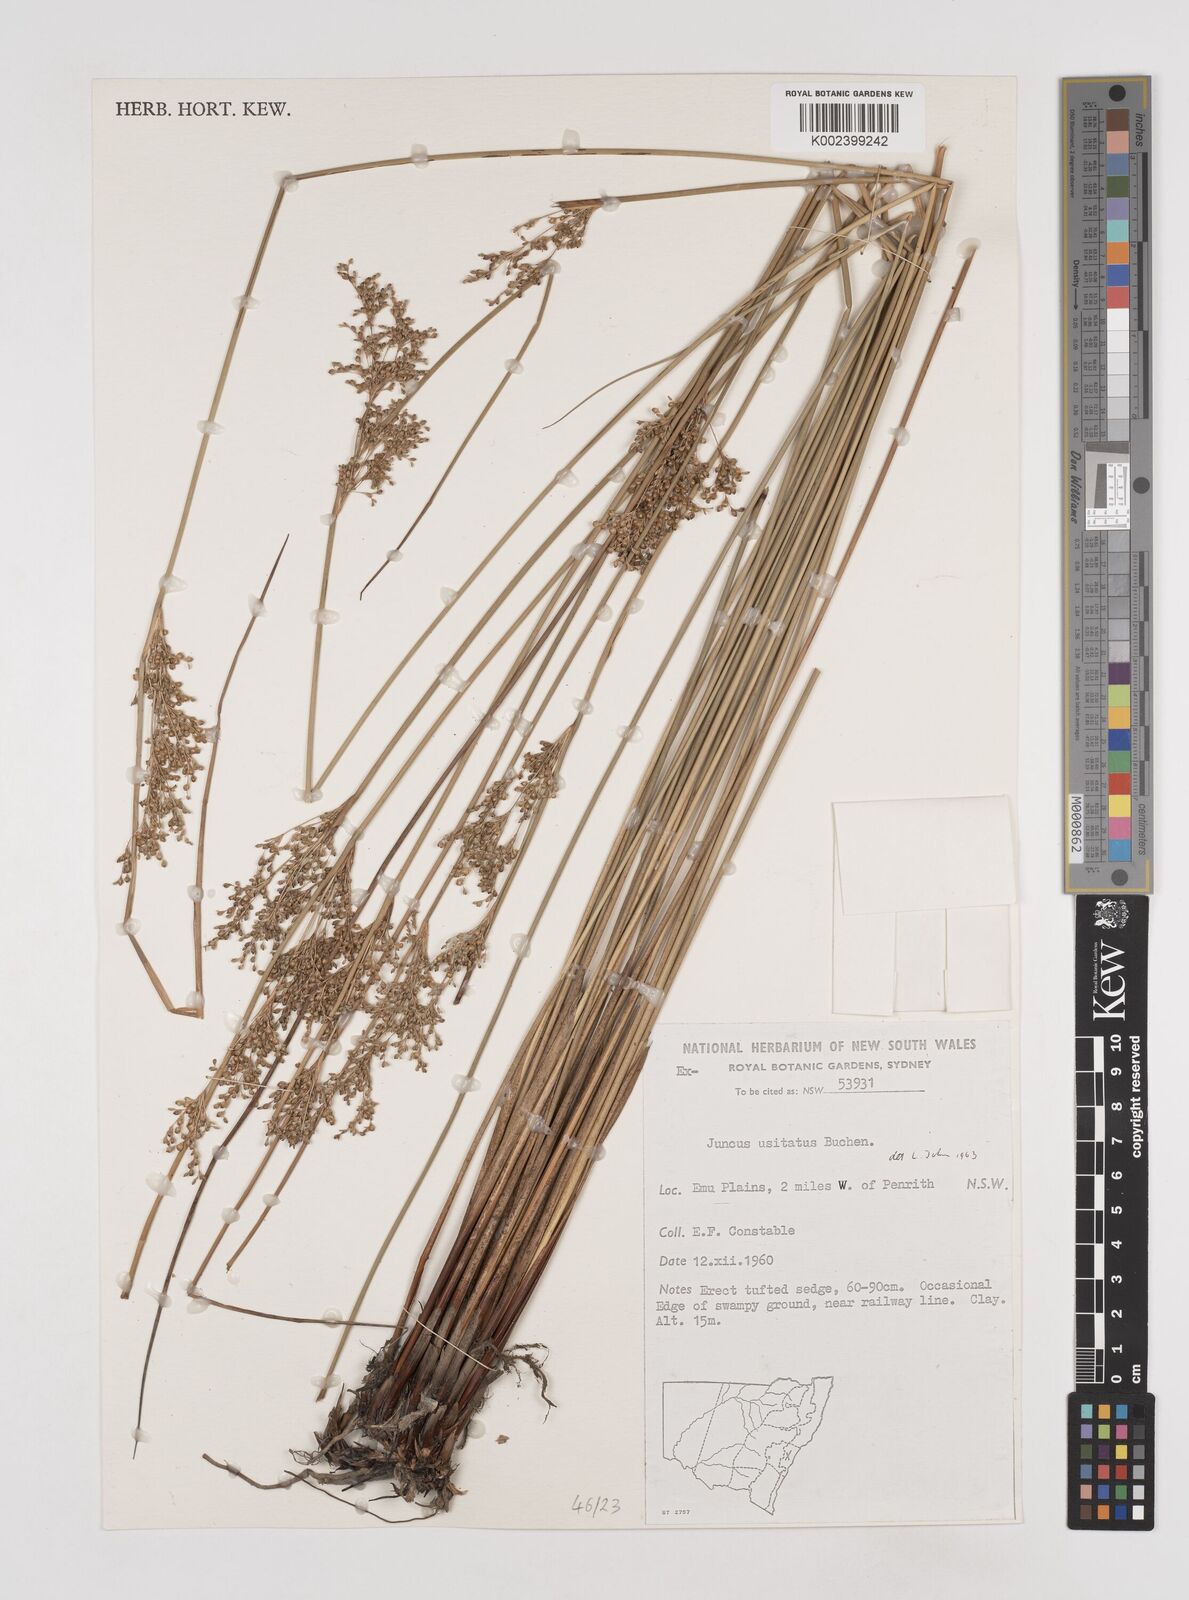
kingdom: Plantae
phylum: Tracheophyta
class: Liliopsida
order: Poales
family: Juncaceae
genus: Juncus
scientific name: Juncus usitatus
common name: Rush
